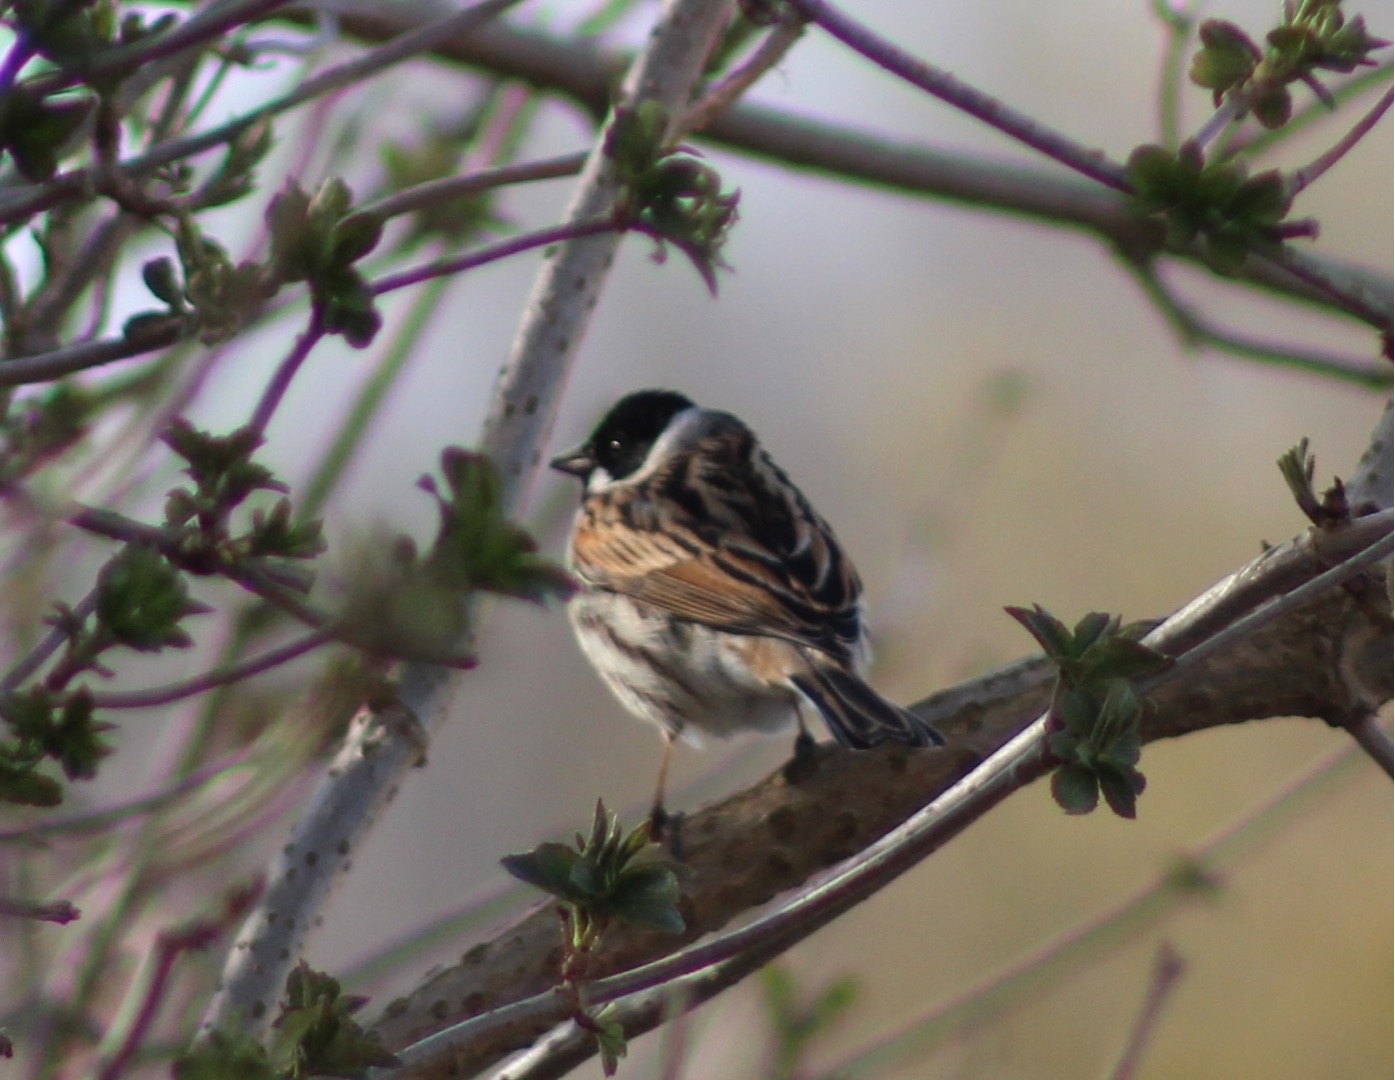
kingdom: Animalia
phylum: Chordata
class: Aves
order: Passeriformes
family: Emberizidae
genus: Emberiza
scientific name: Emberiza schoeniclus
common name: Rørspurv
